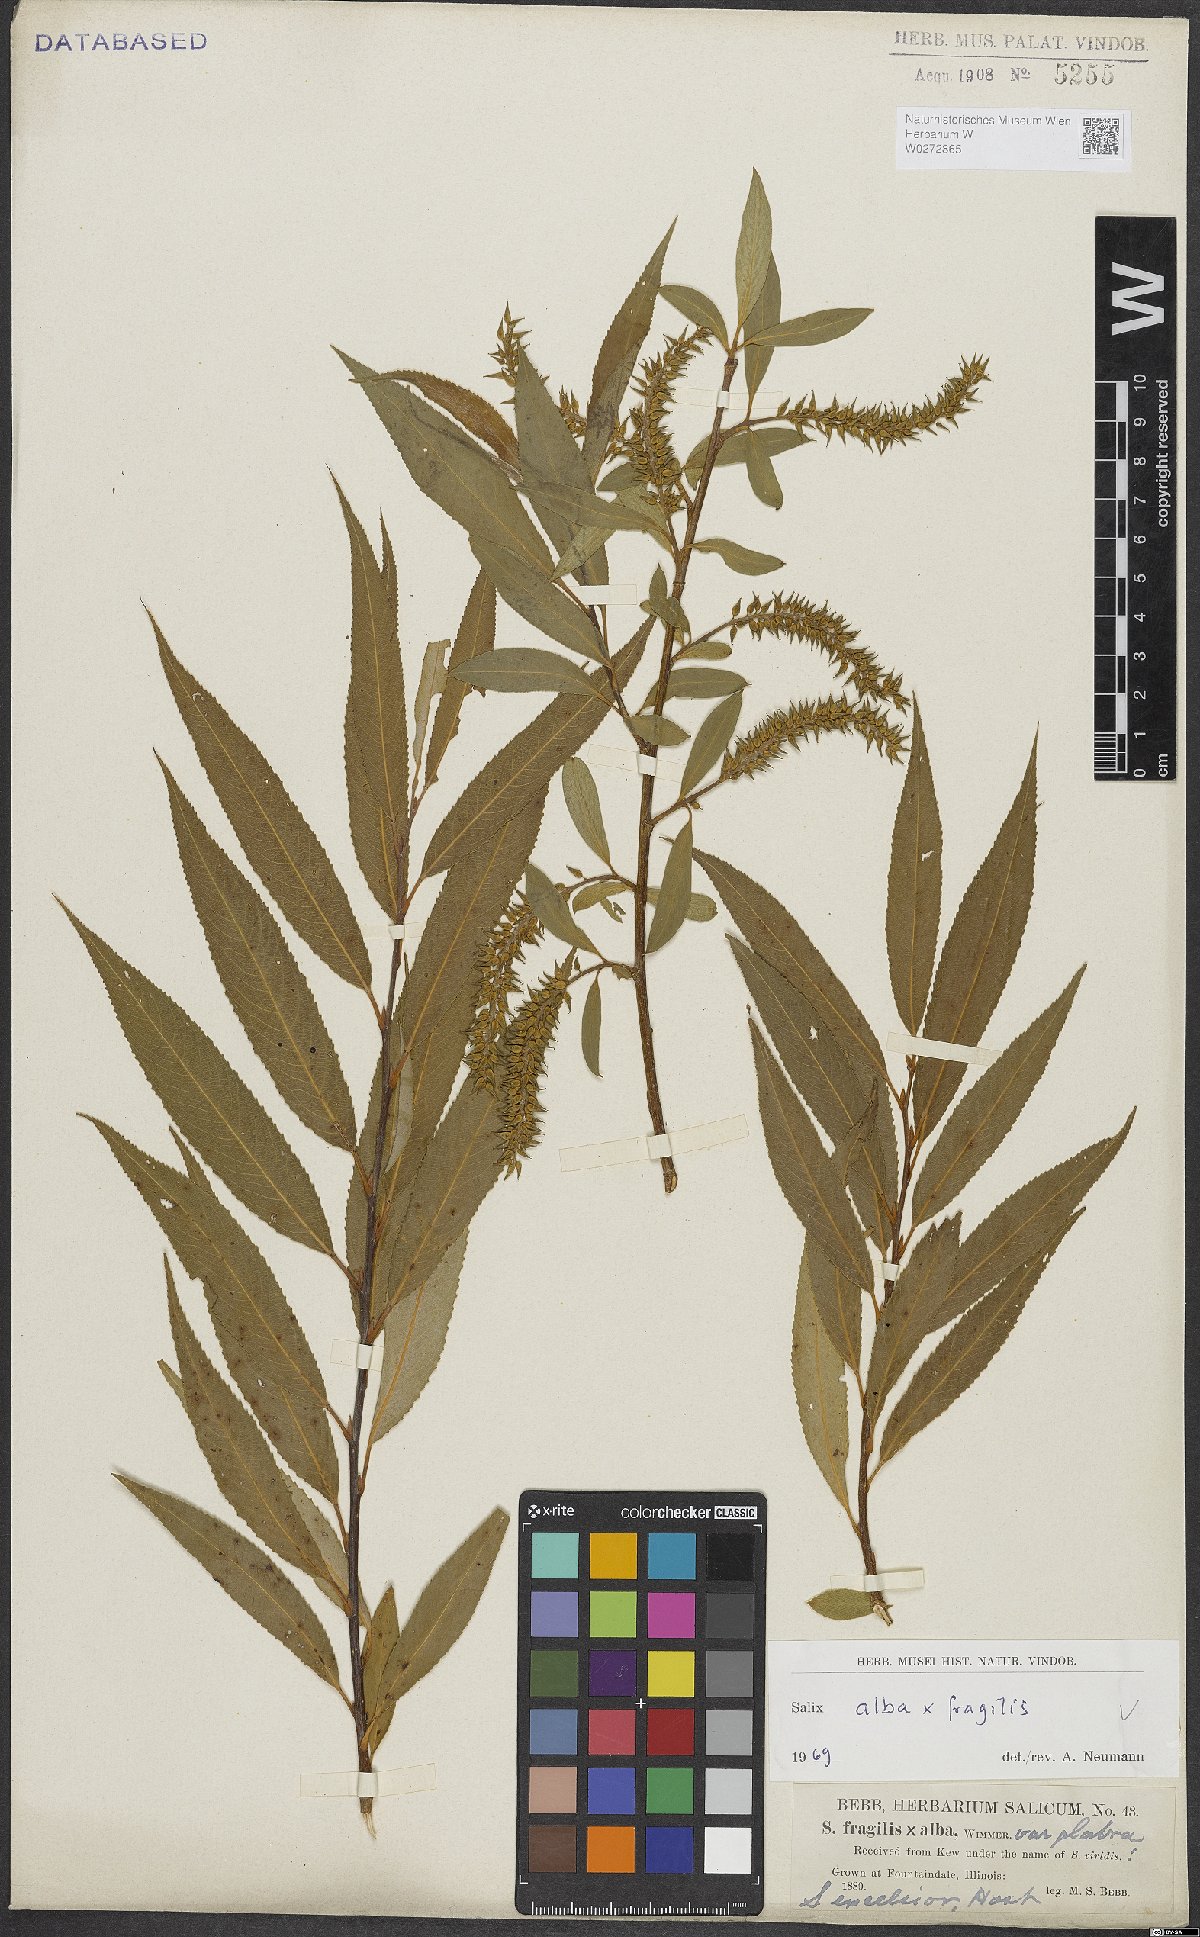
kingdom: Plantae
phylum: Tracheophyta
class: Magnoliopsida
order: Malpighiales
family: Salicaceae
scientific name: Salicaceae
